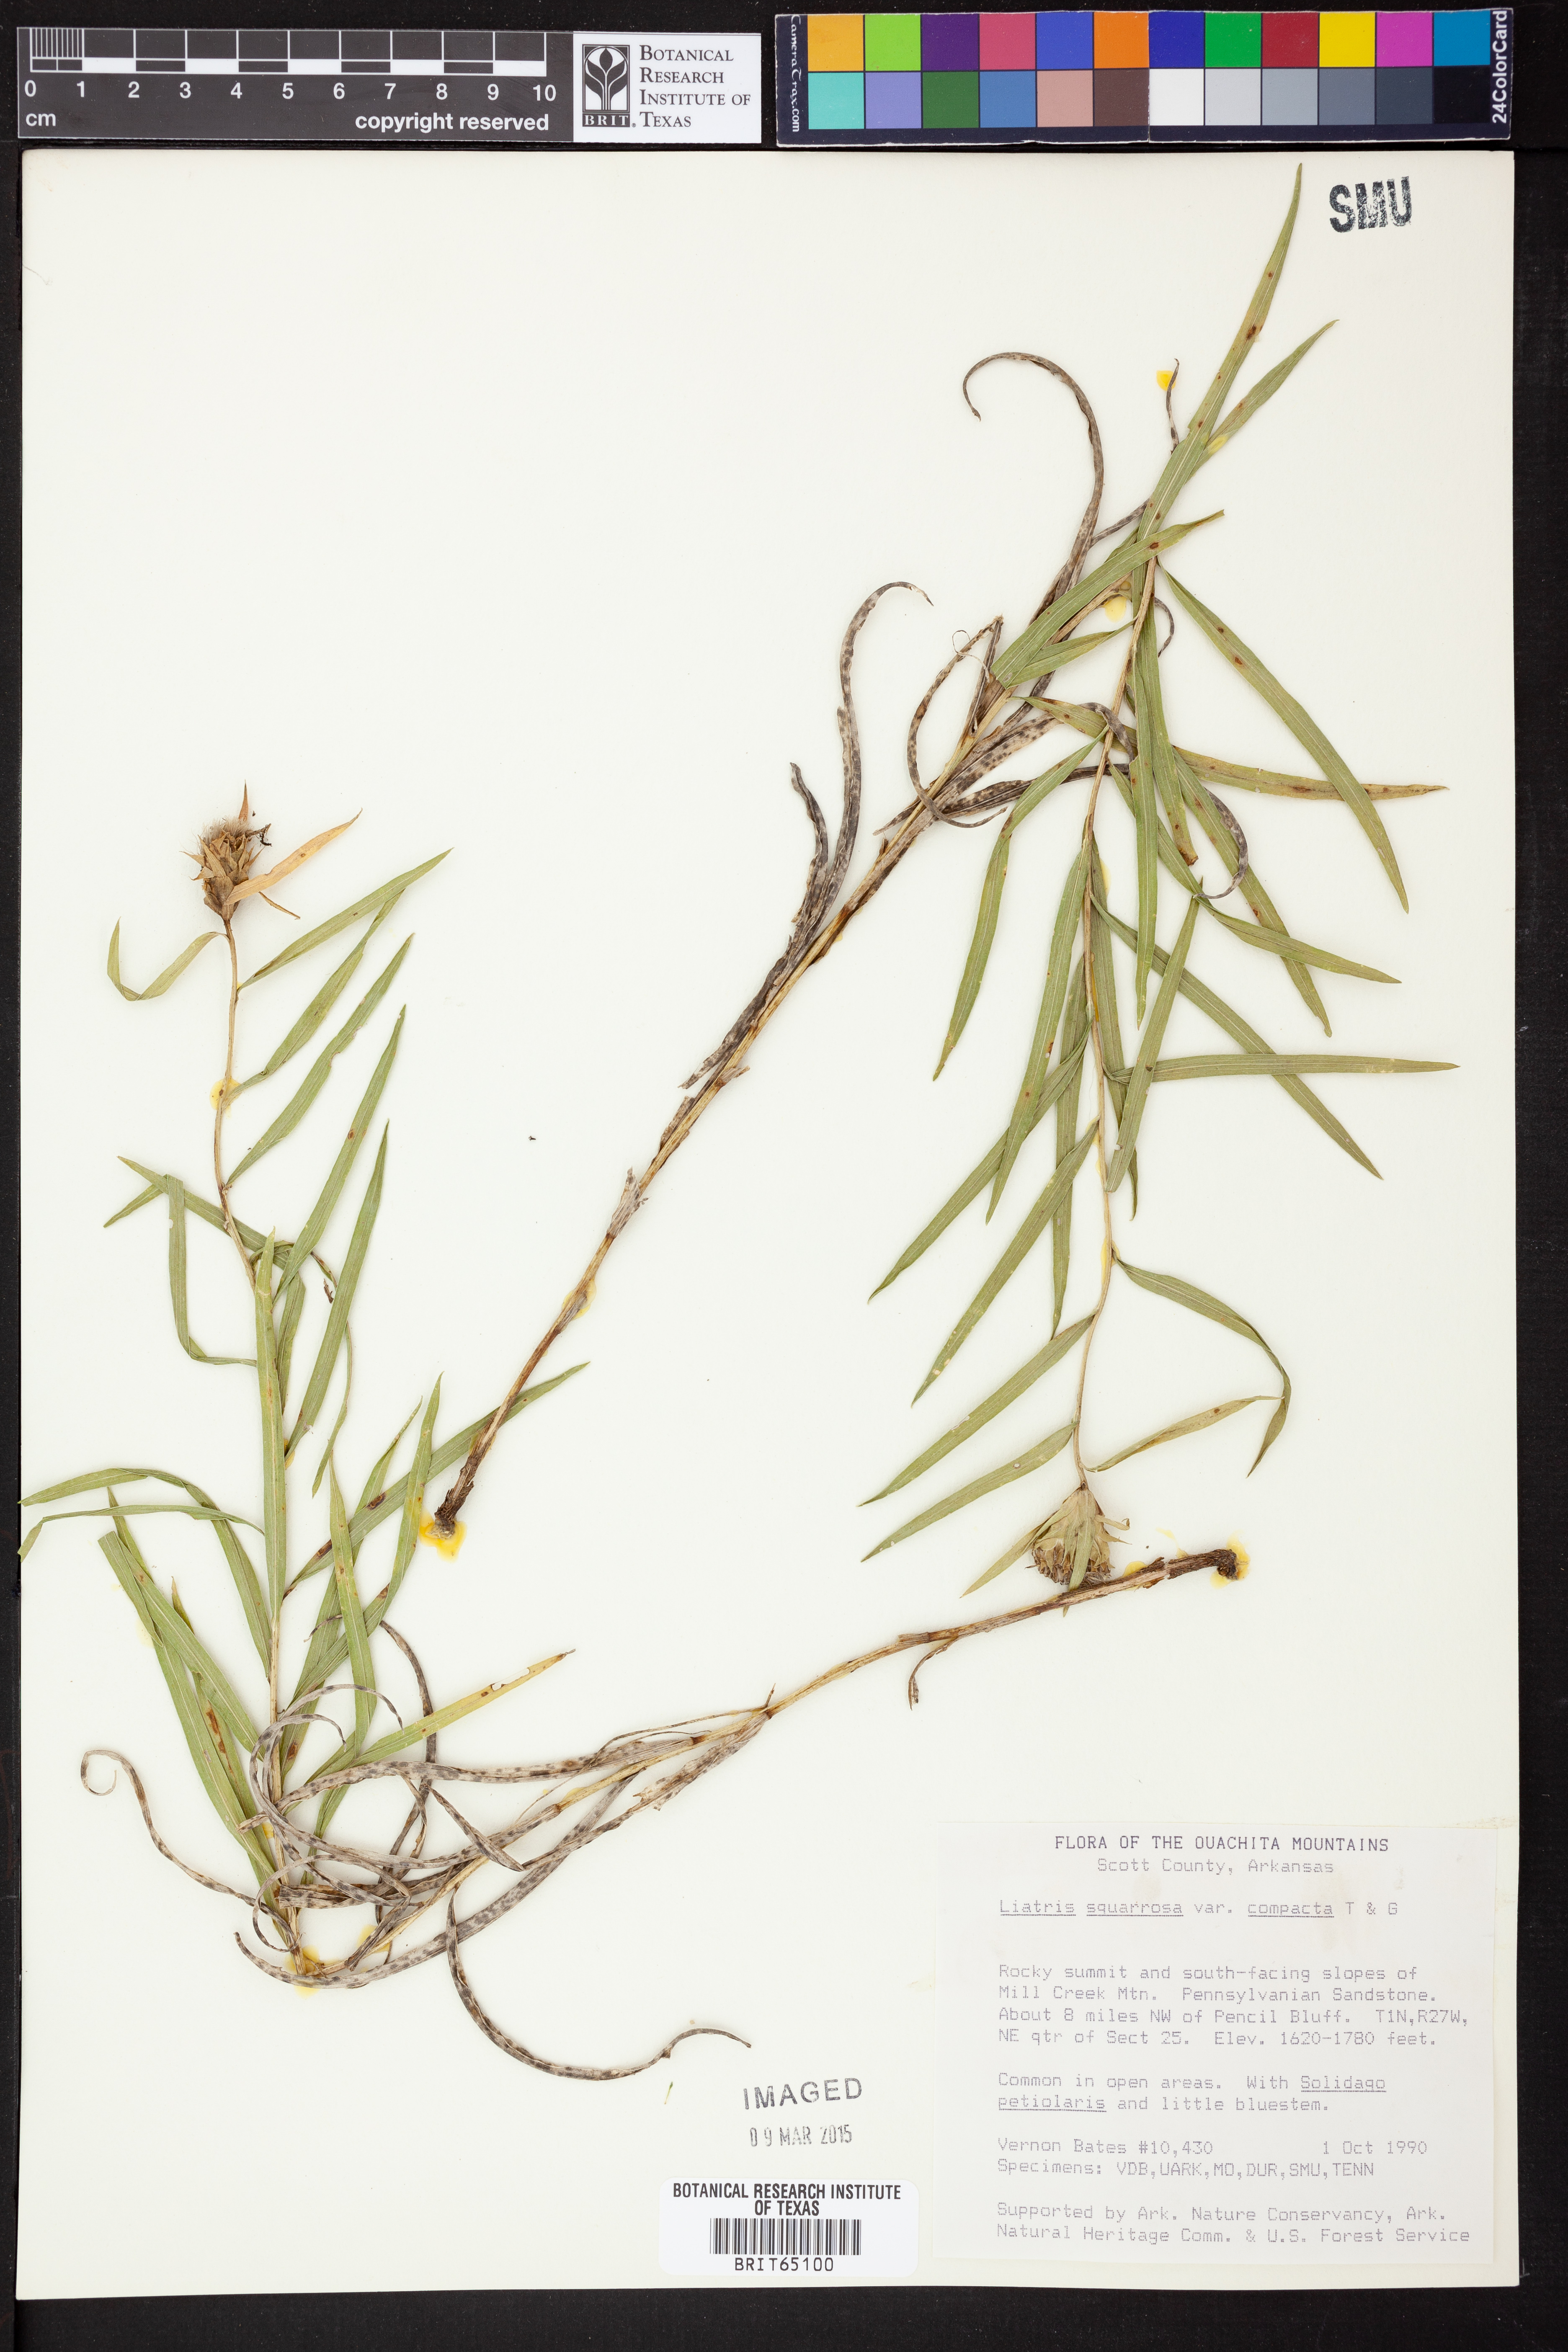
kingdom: Plantae
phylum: Tracheophyta
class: Magnoliopsida
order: Asterales
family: Asteraceae
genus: Liatris
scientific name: Liatris compacta
